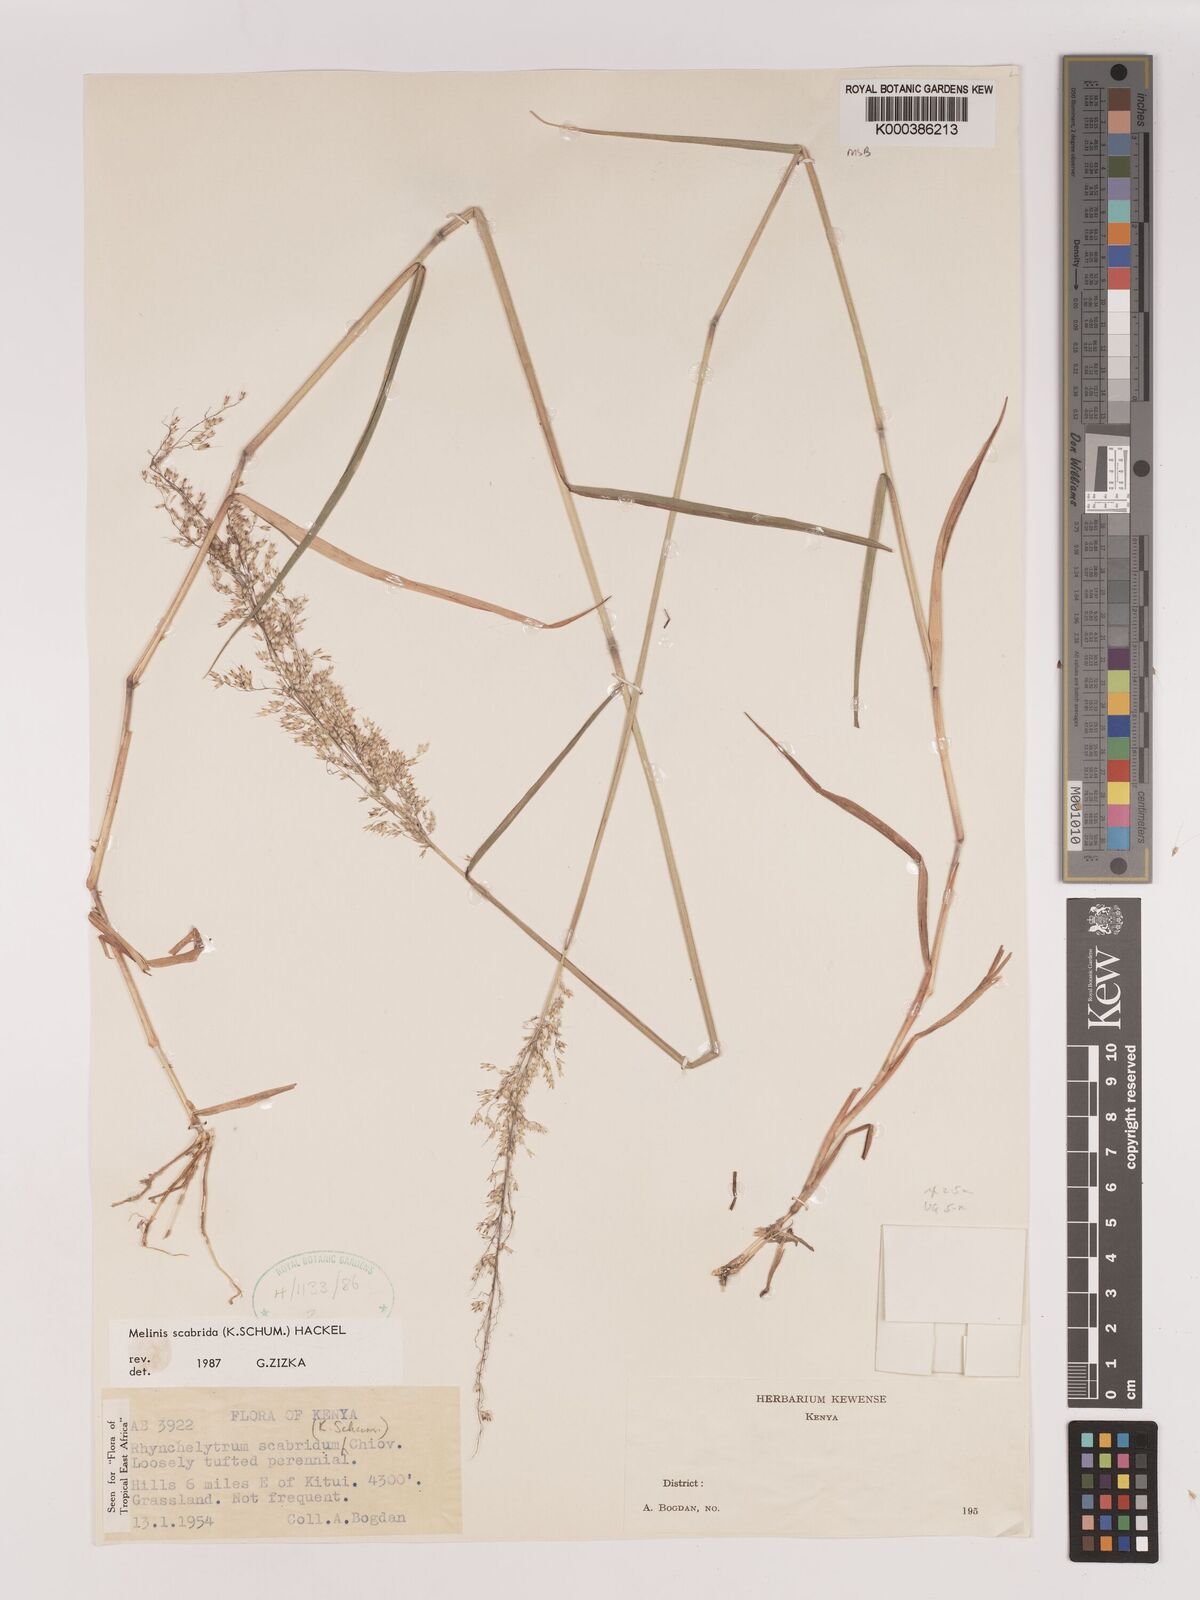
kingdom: Plantae
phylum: Tracheophyta
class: Liliopsida
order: Poales
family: Poaceae
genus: Melinis
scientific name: Melinis scabrida
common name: Millet grass
